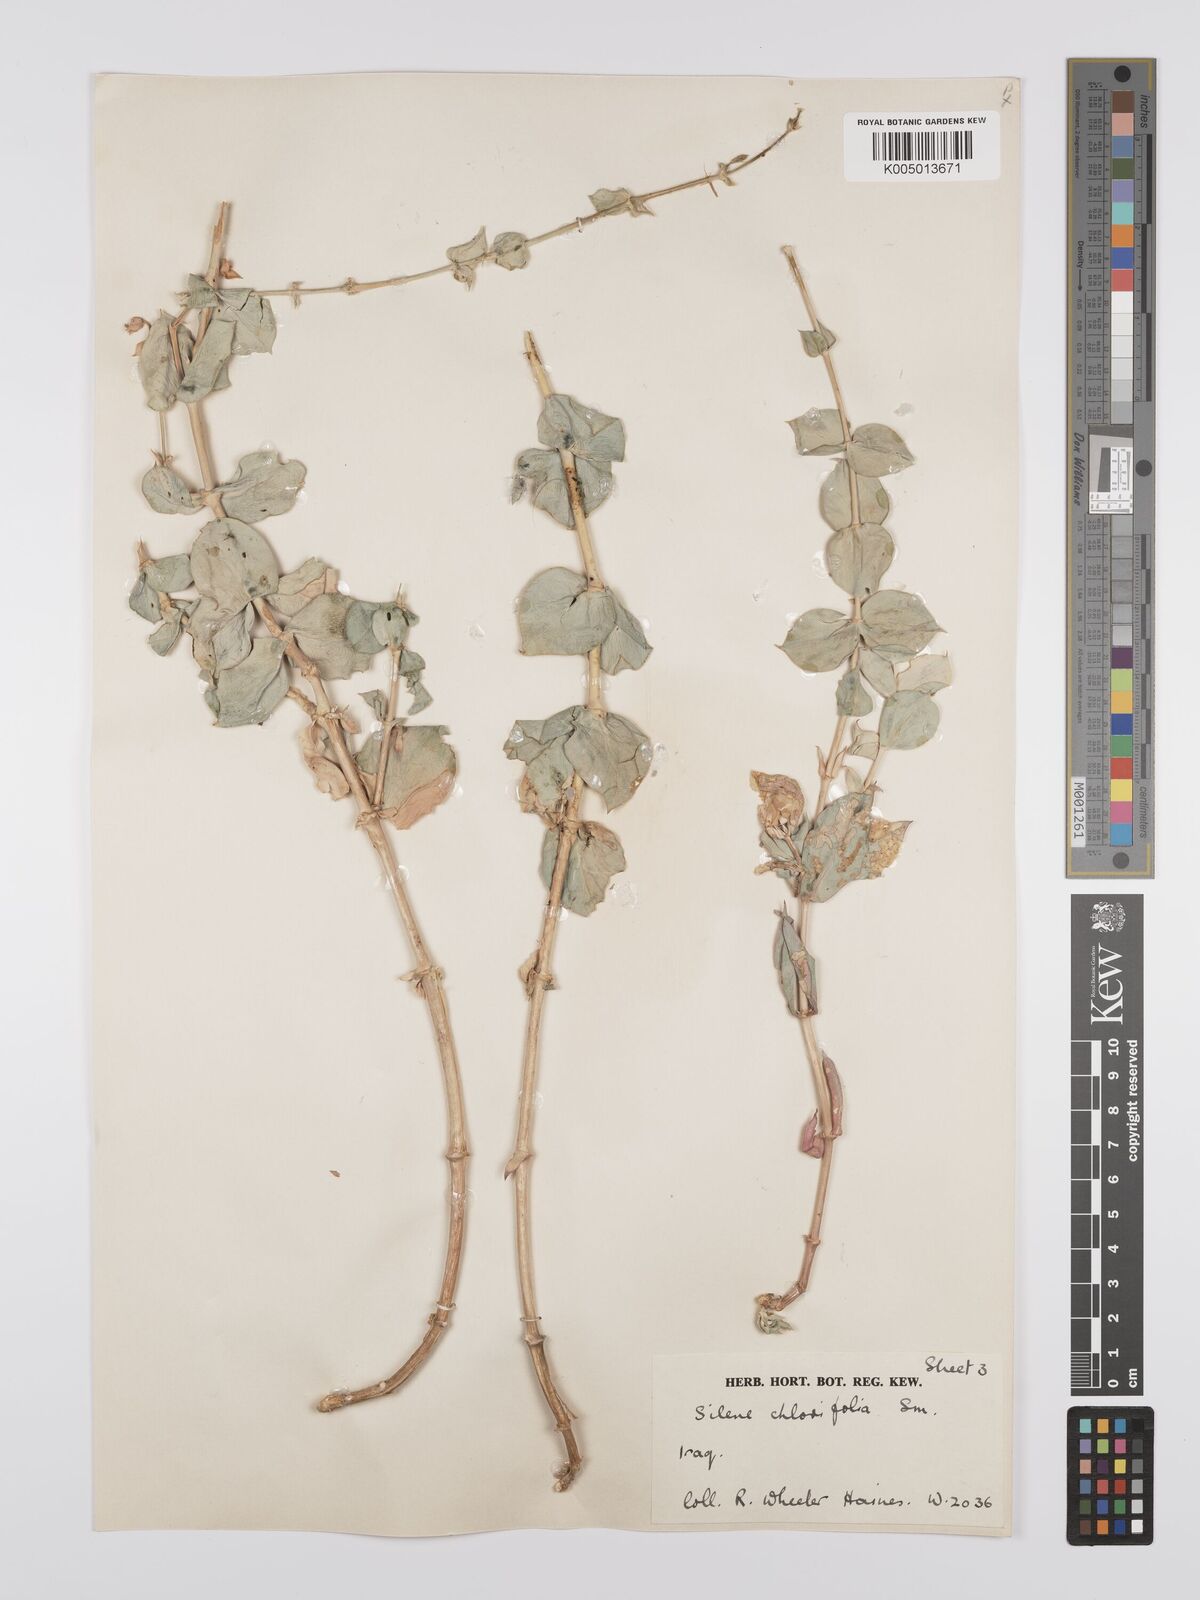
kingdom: Plantae
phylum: Tracheophyta
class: Magnoliopsida
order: Caryophyllales
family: Caryophyllaceae
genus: Silene
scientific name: Silene chlorifolia
